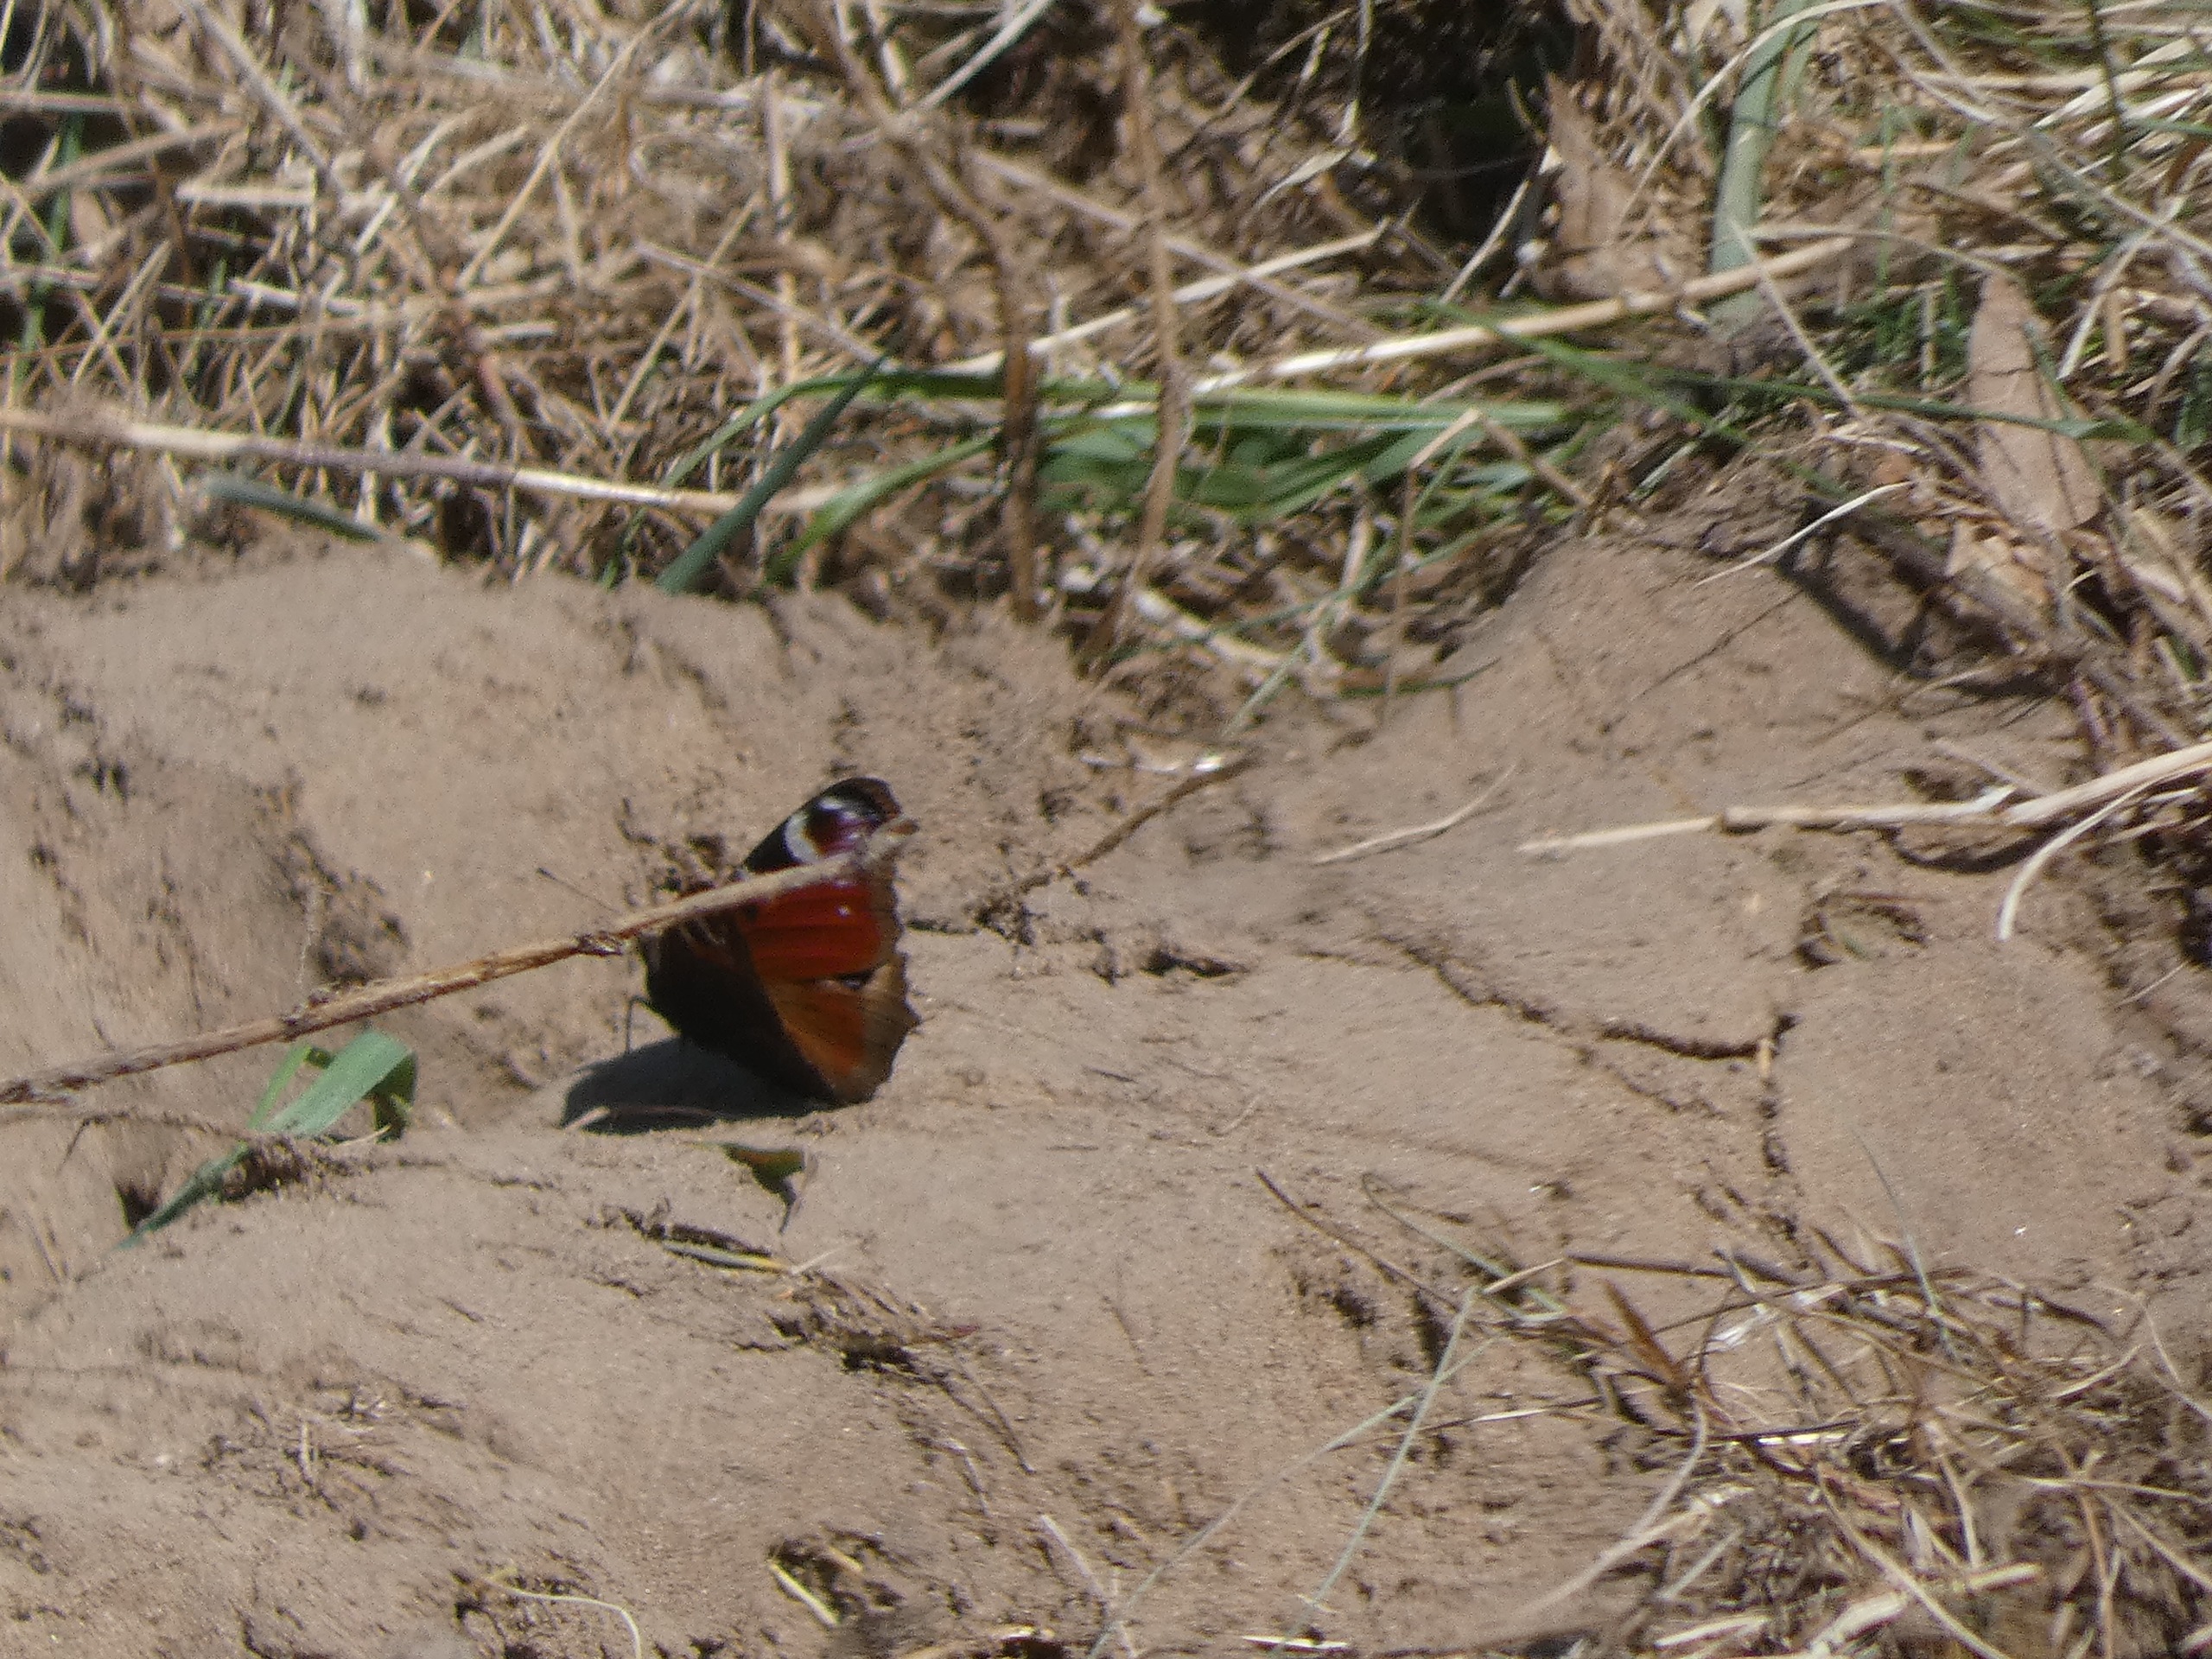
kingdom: Animalia
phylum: Arthropoda
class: Insecta
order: Lepidoptera
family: Nymphalidae
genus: Aglais
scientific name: Aglais io
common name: Dagpåfugleøje
